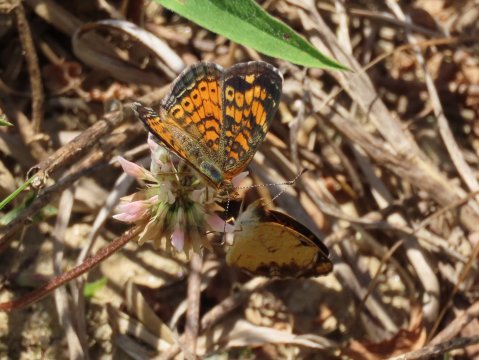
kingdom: Animalia
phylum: Arthropoda
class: Insecta
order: Lepidoptera
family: Nymphalidae
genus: Phyciodes
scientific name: Phyciodes tharos
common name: Pearl Crescent
